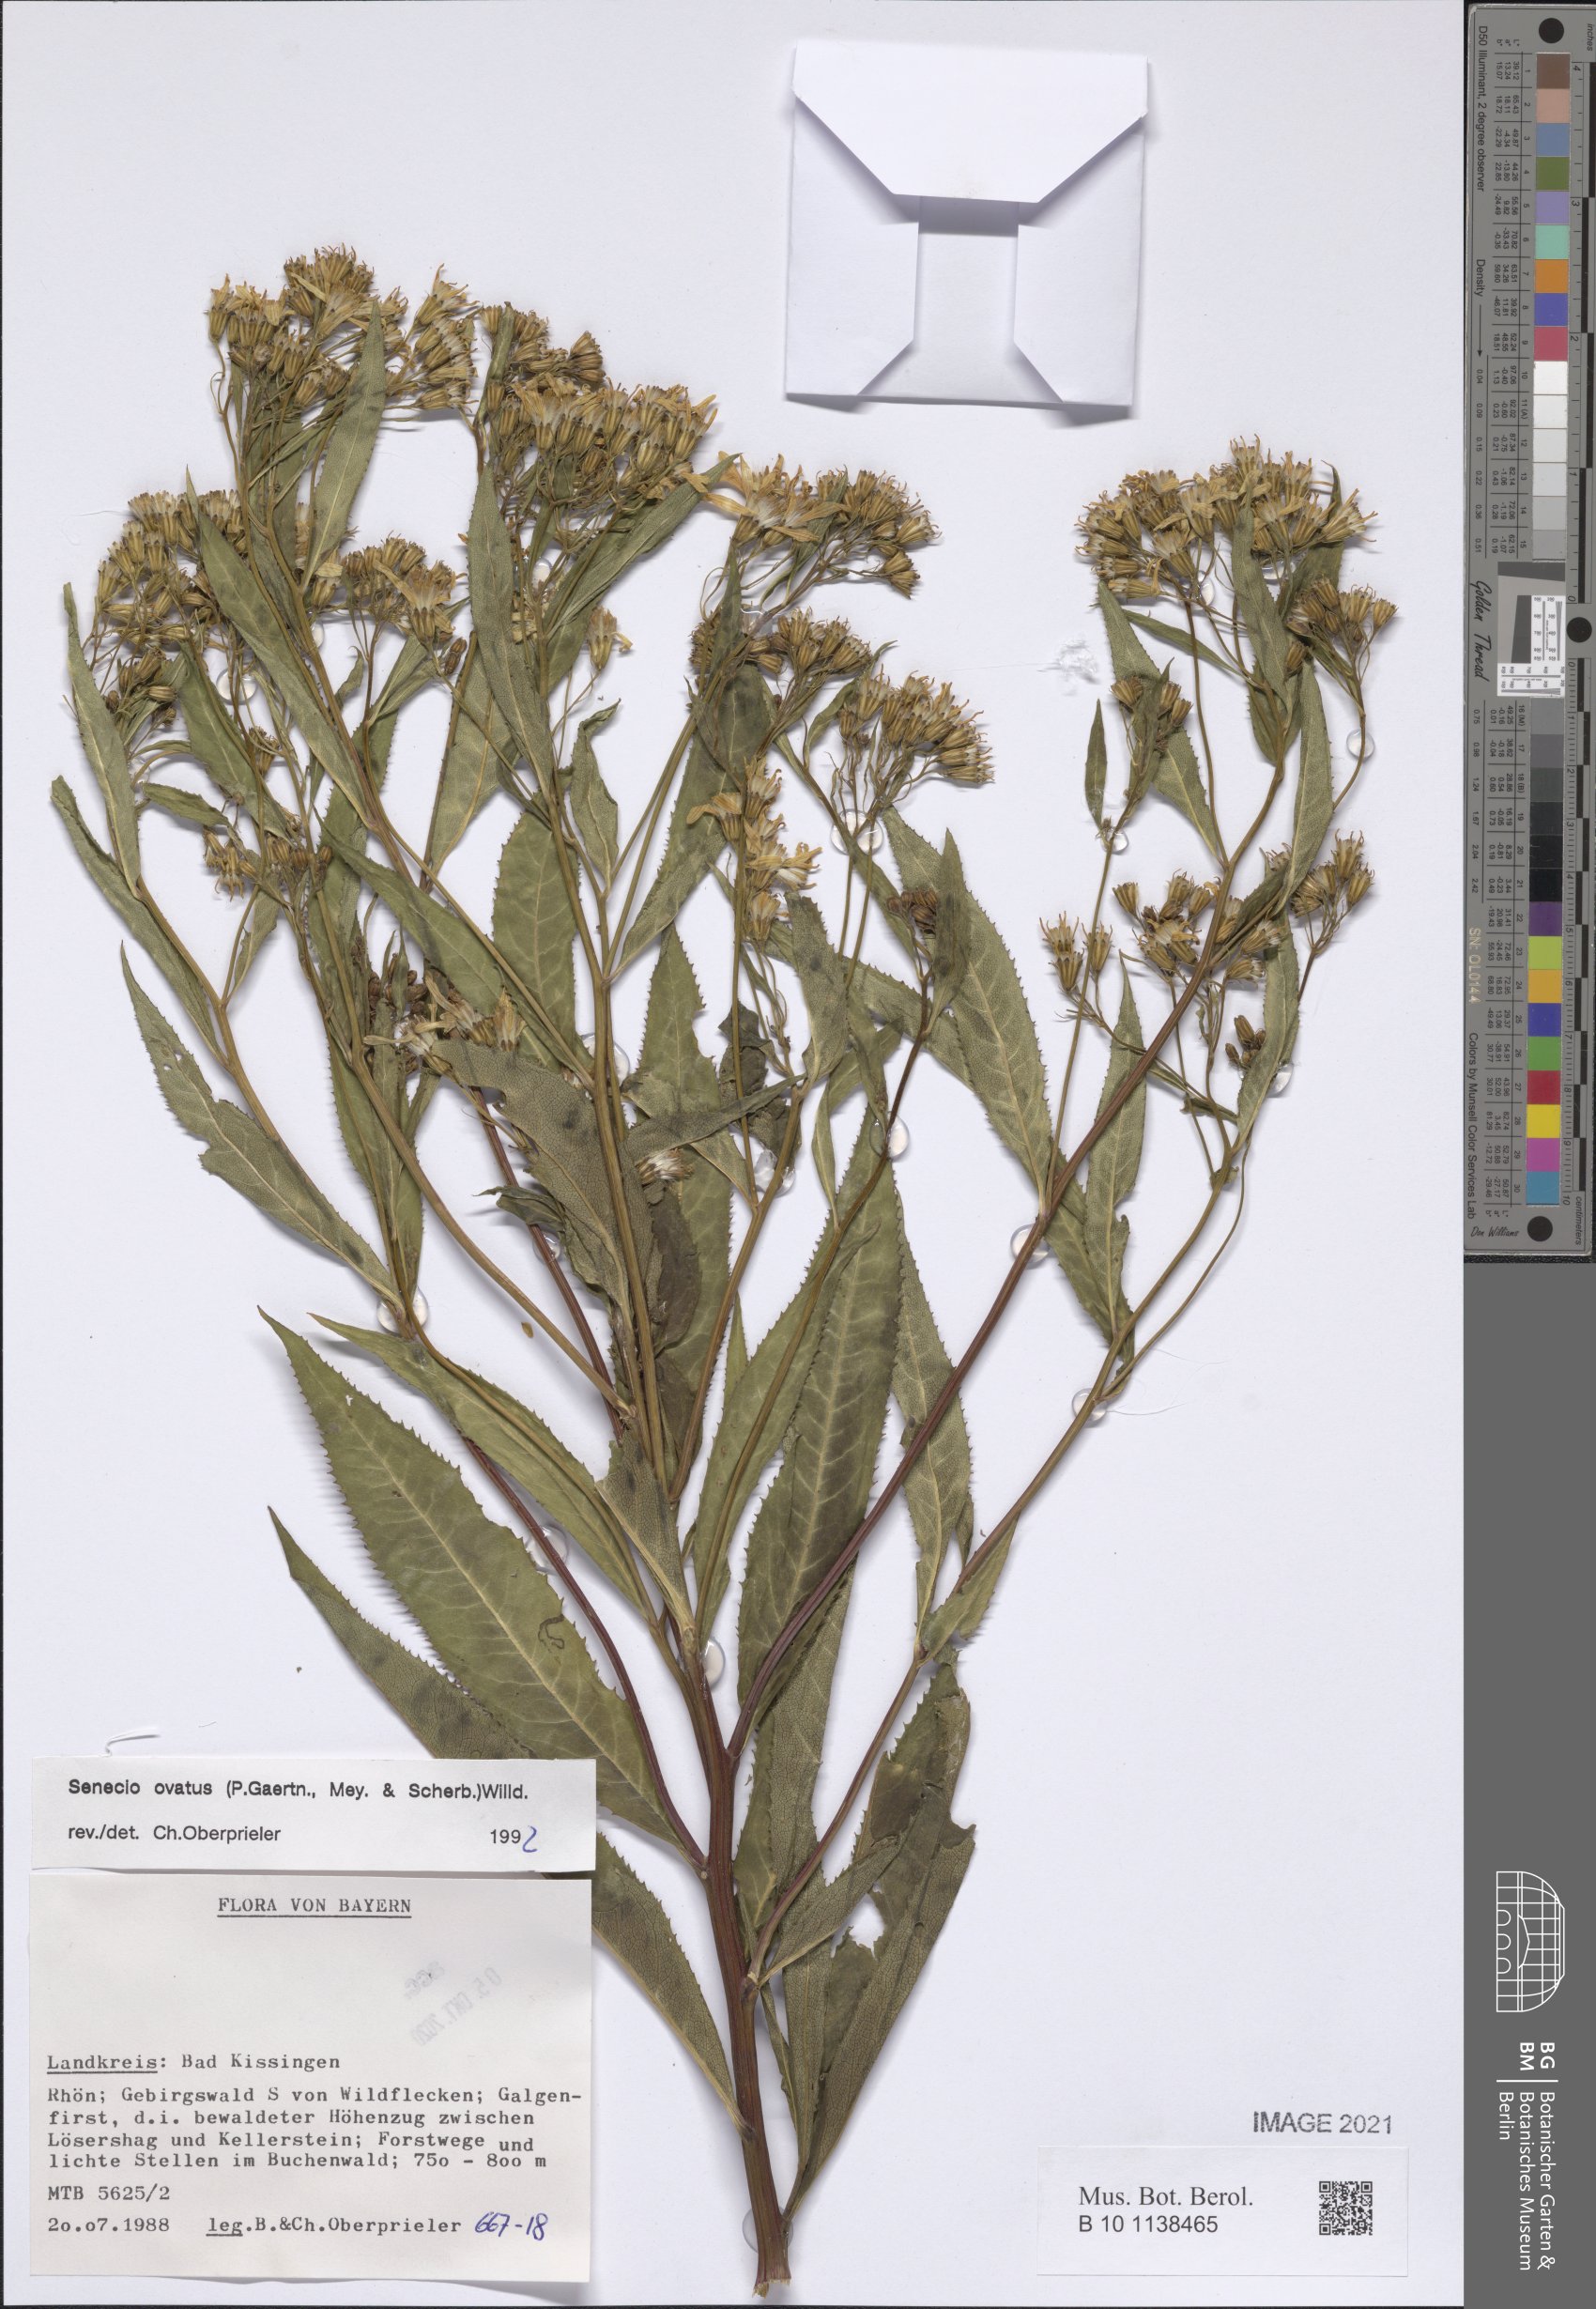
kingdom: Plantae
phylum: Tracheophyta
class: Magnoliopsida
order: Asterales
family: Asteraceae
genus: Senecio
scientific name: Senecio ovatus
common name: Wood ragwort
